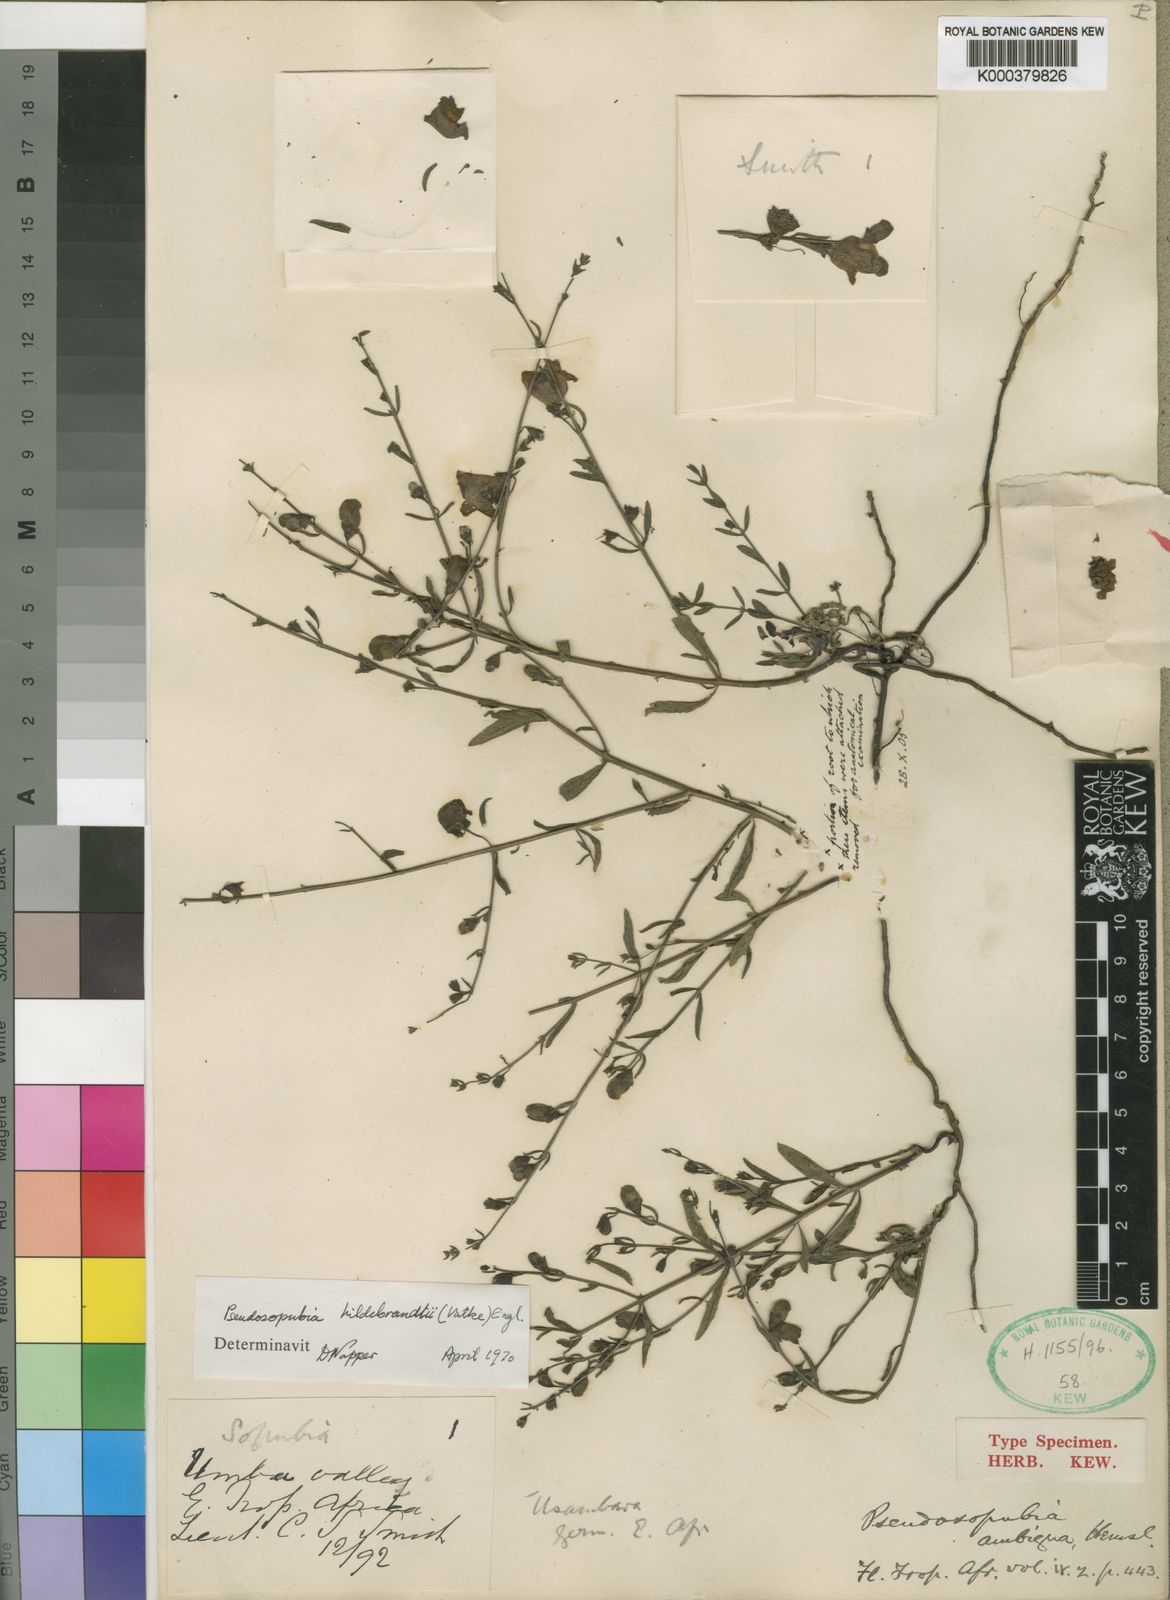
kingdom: Plantae
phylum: Tracheophyta
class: Magnoliopsida
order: Lamiales
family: Orobanchaceae
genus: Pseudosopubia
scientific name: Pseudosopubia hildebrandtii
